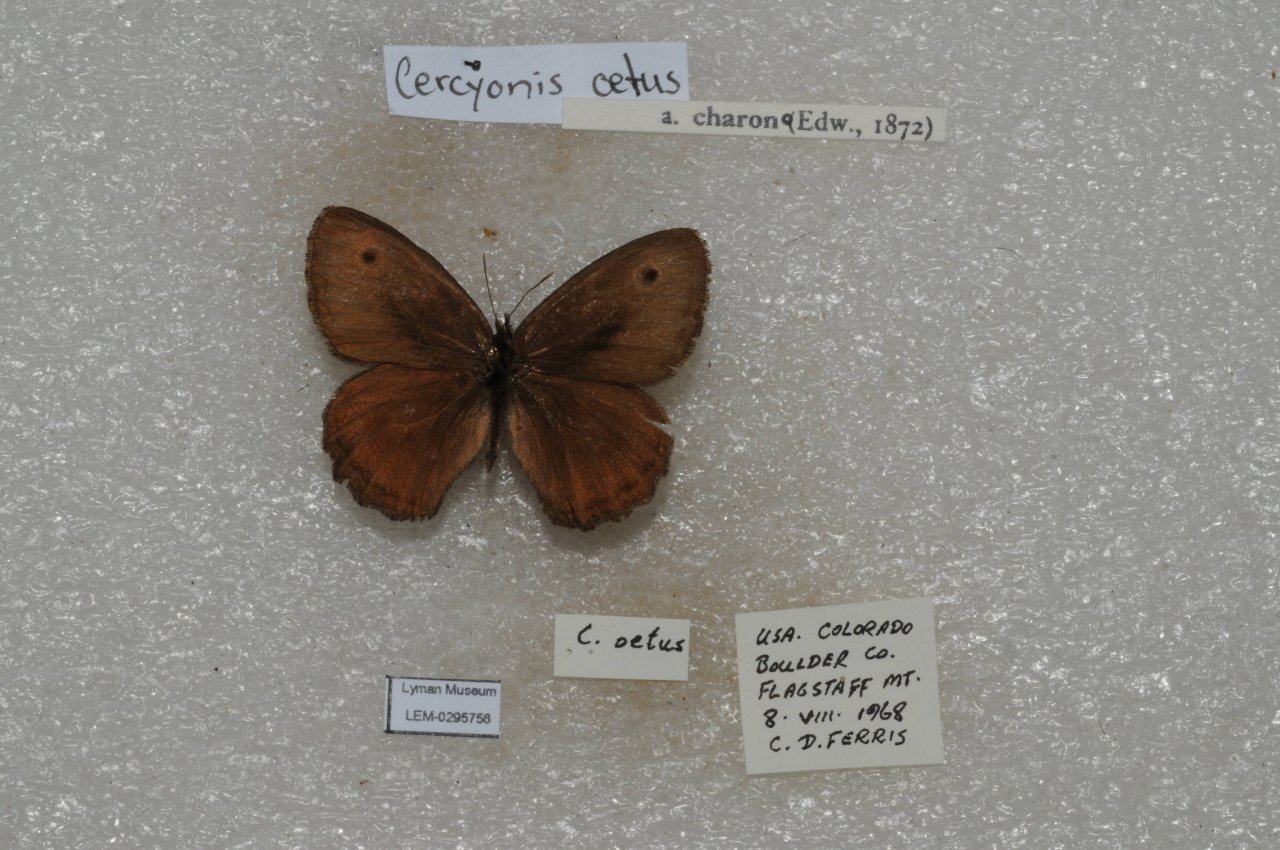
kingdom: Animalia
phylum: Arthropoda
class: Insecta
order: Lepidoptera
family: Nymphalidae
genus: Cercyonis
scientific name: Cercyonis oetus
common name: Small Wood-Nymph
